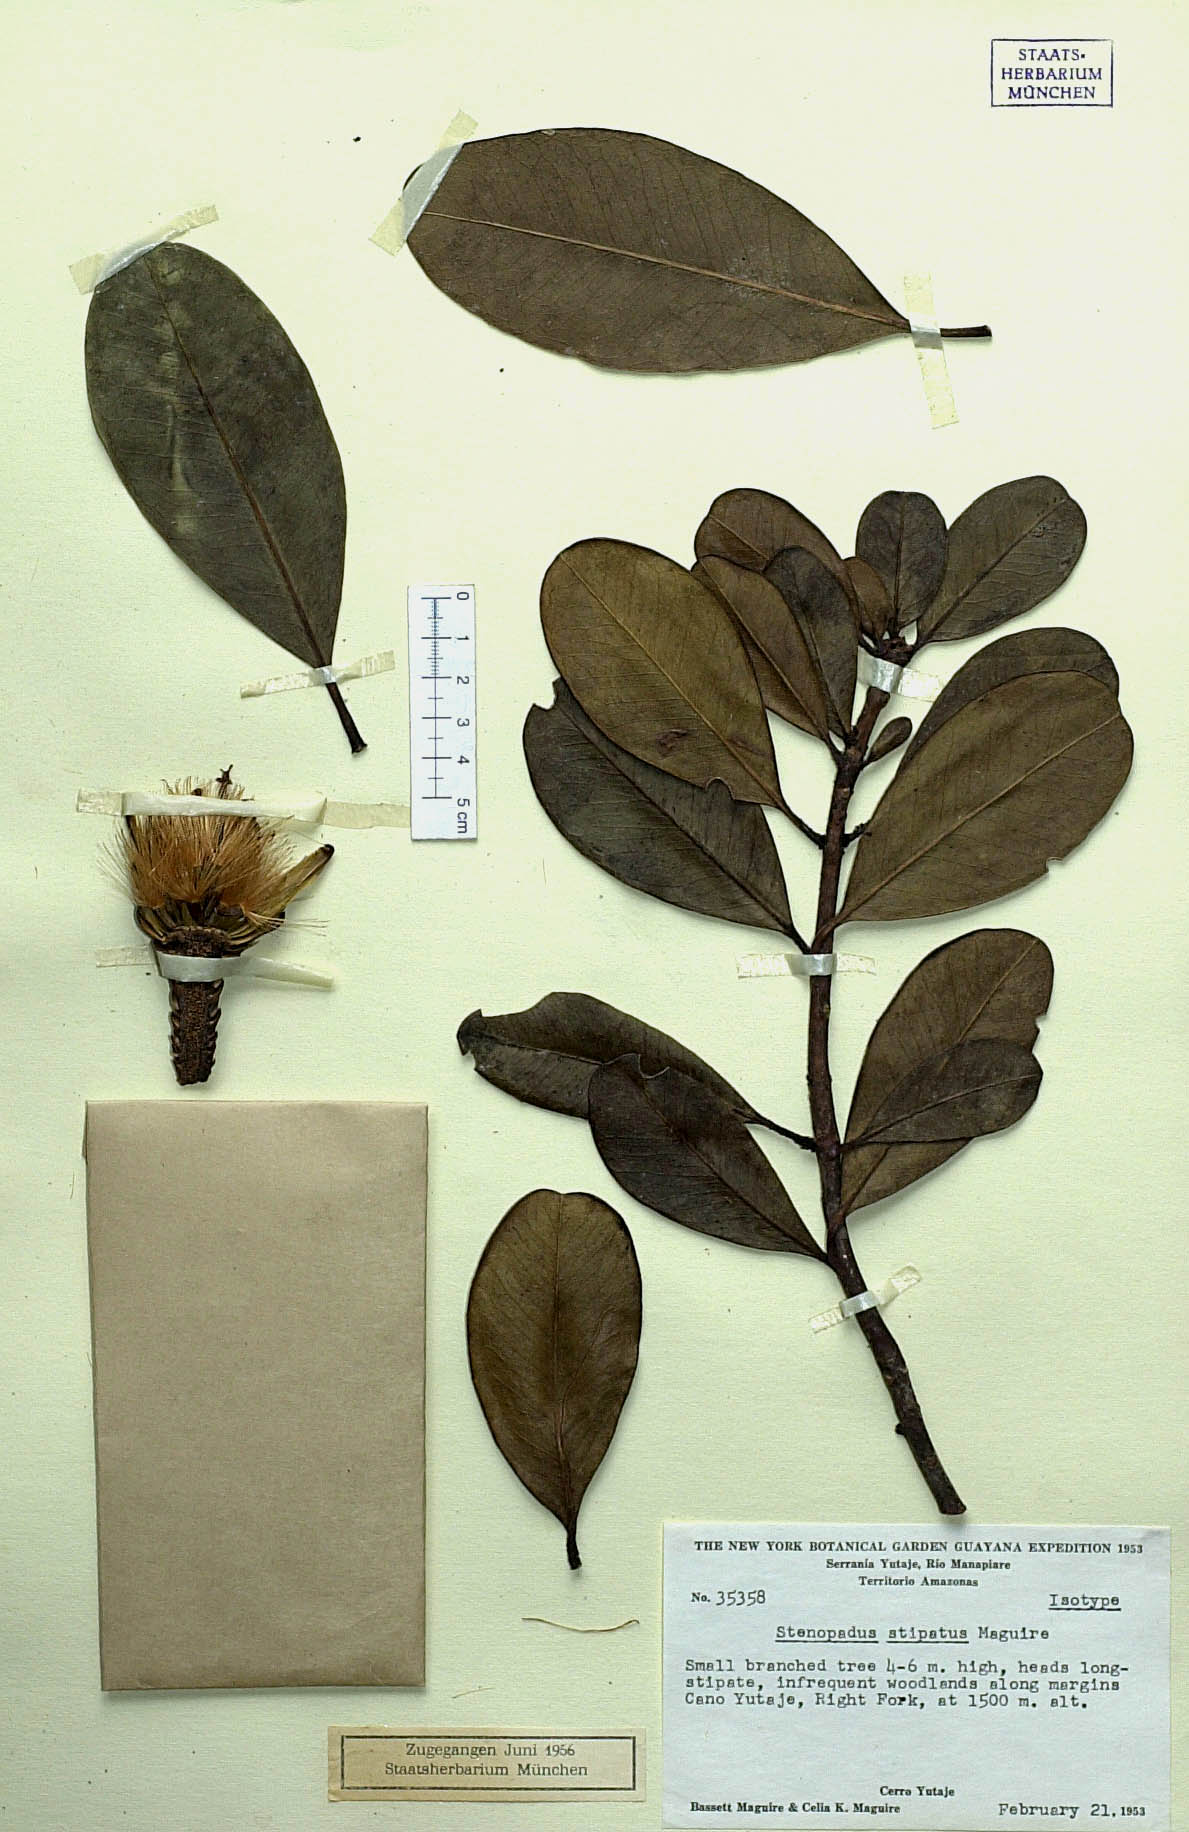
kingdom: Plantae
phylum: Tracheophyta
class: Magnoliopsida
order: Asterales
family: Asteraceae
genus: Stenopadus
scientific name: Stenopadus kunhardtii
